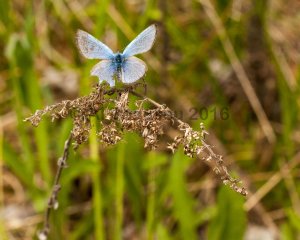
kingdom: Animalia
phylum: Arthropoda
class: Insecta
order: Lepidoptera
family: Lycaenidae
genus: Celastrina
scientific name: Celastrina lucia
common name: Northern Spring Azure
